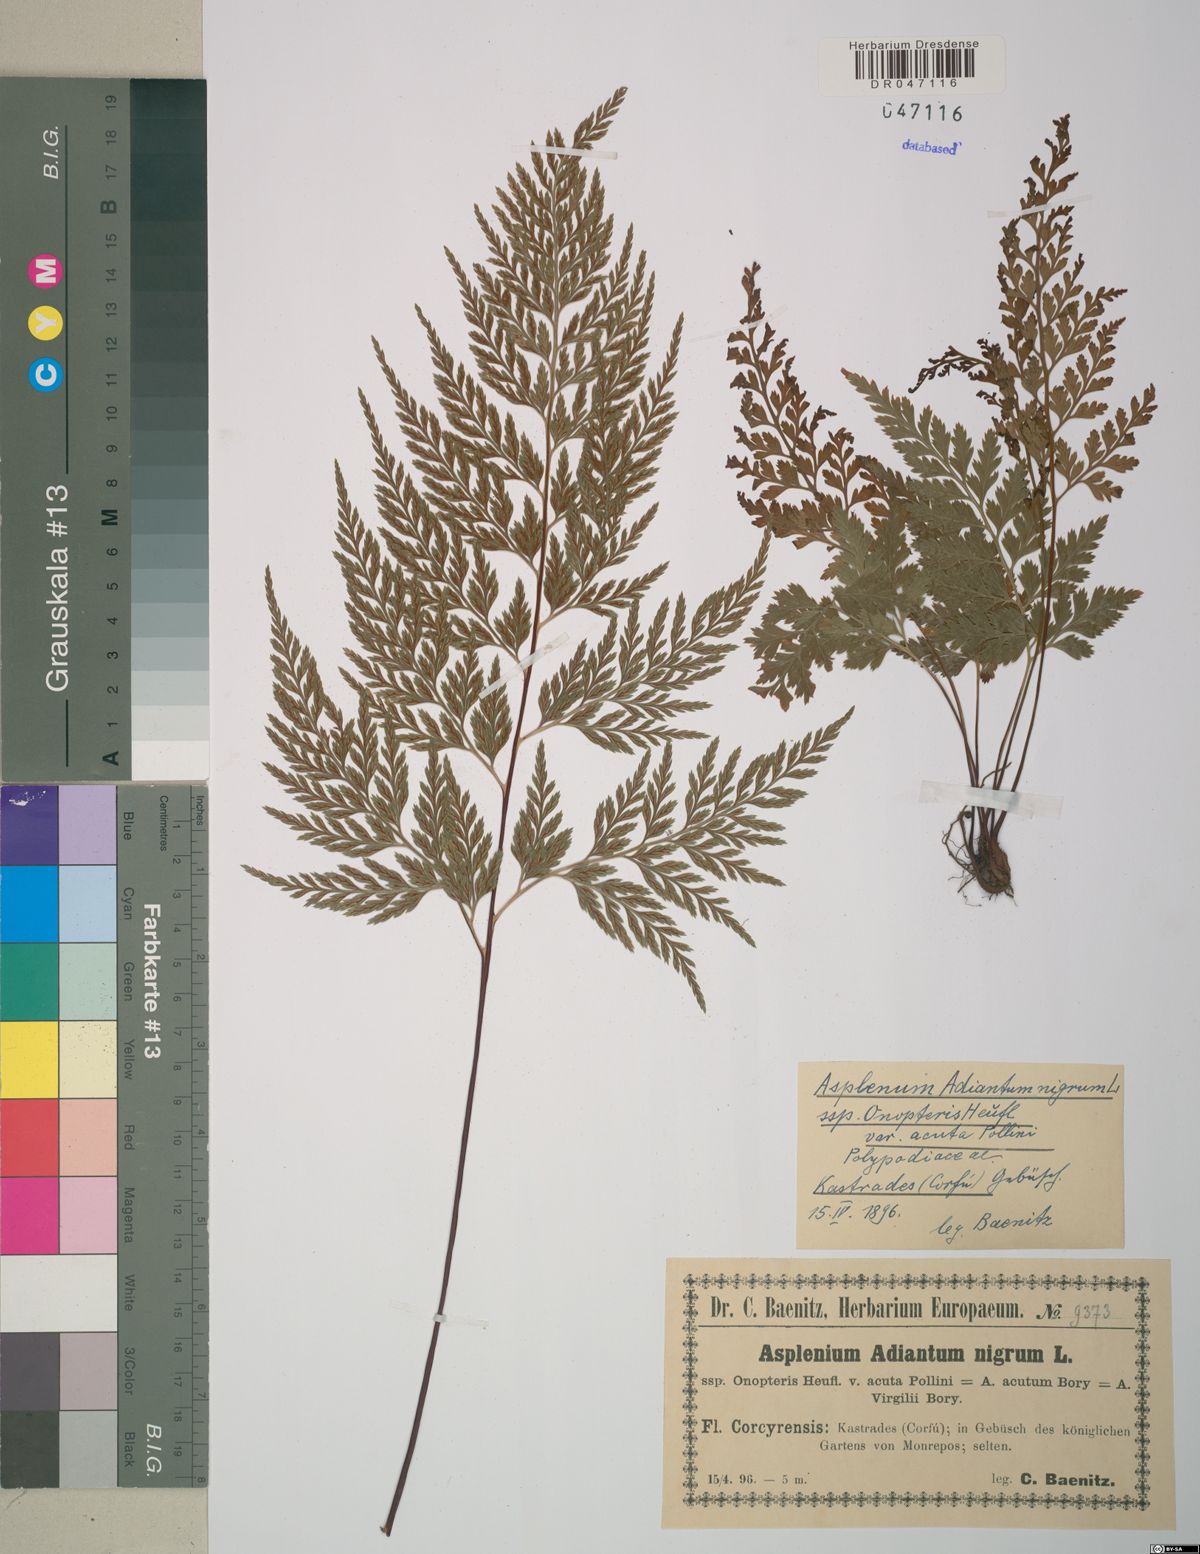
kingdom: Plantae
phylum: Tracheophyta
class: Polypodiopsida
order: Polypodiales
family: Aspleniaceae
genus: Asplenium
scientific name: Asplenium onopteris
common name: Irish spleenwort
